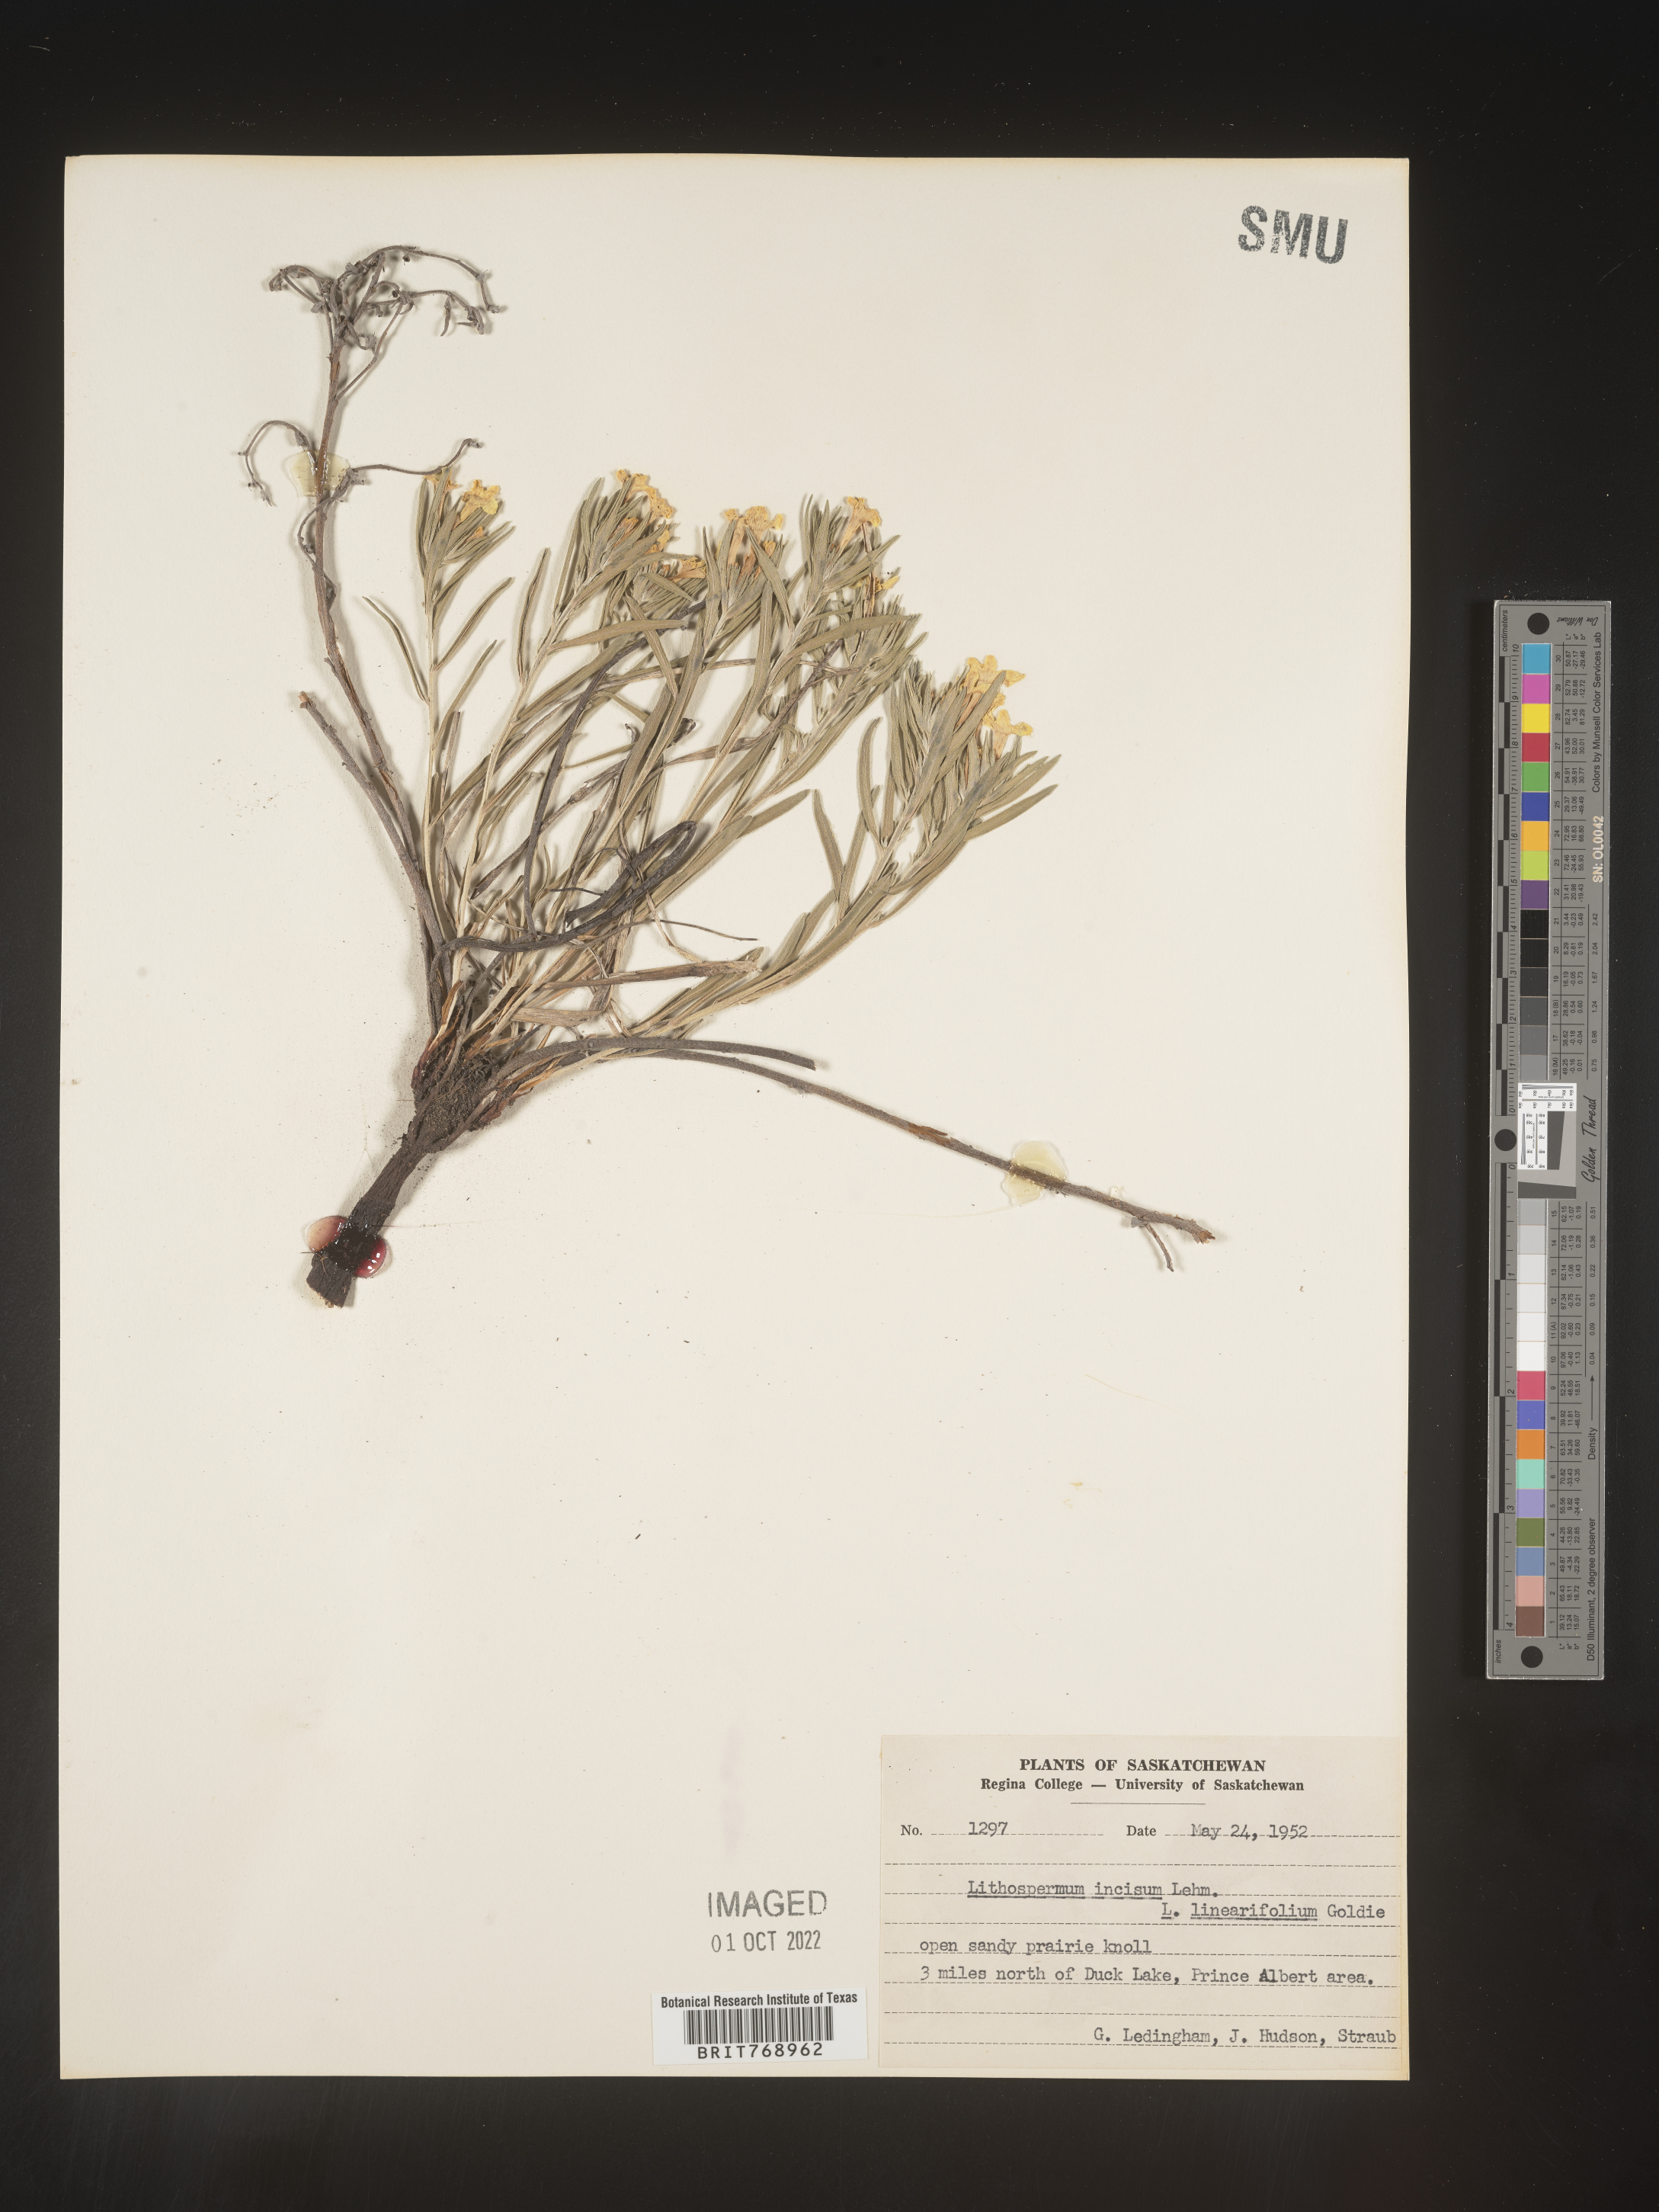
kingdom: Plantae
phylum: Tracheophyta
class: Magnoliopsida
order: Boraginales
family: Boraginaceae
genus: Lithospermum
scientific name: Lithospermum incisum
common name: Fringed gromwell
